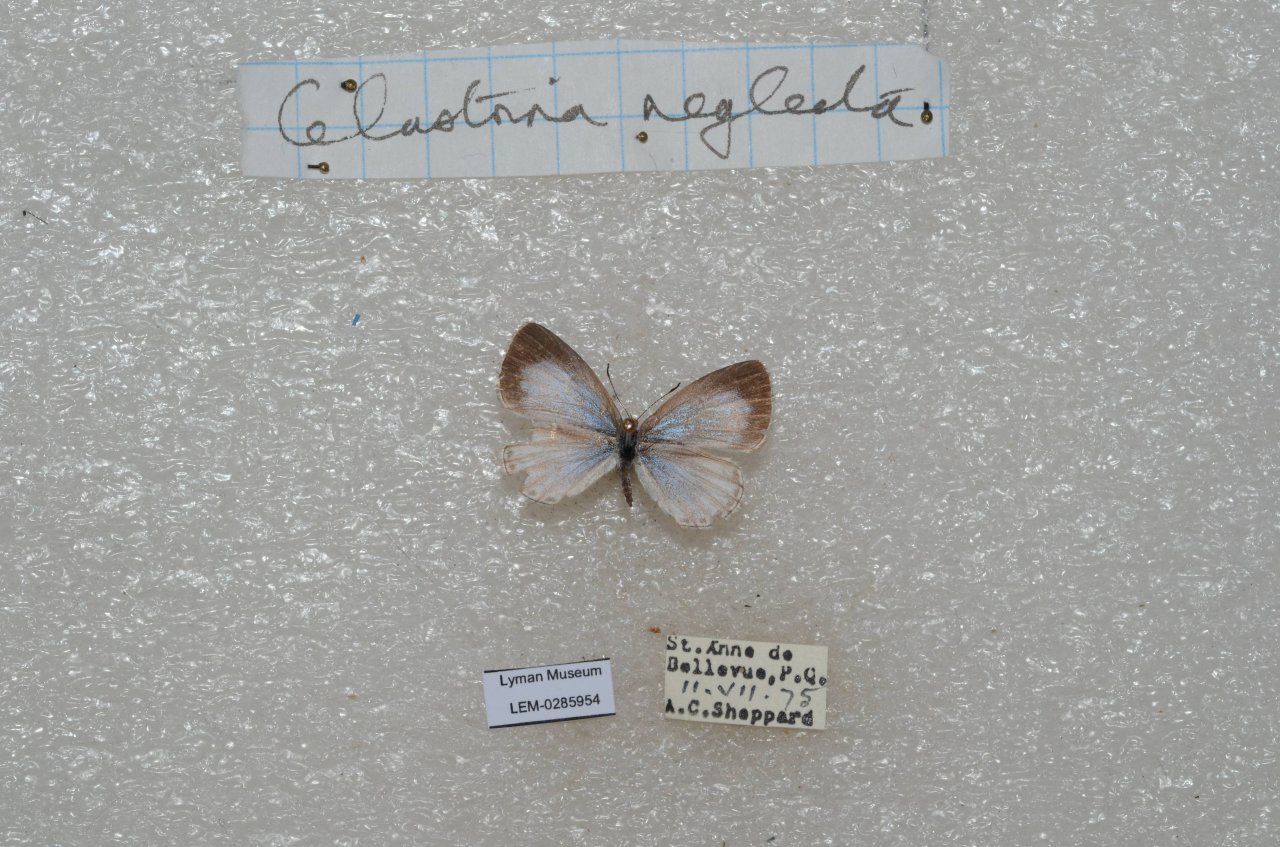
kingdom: Animalia
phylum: Arthropoda
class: Insecta
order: Lepidoptera
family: Lycaenidae
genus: Celastrina
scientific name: Celastrina lucia
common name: Northern Spring Azure
